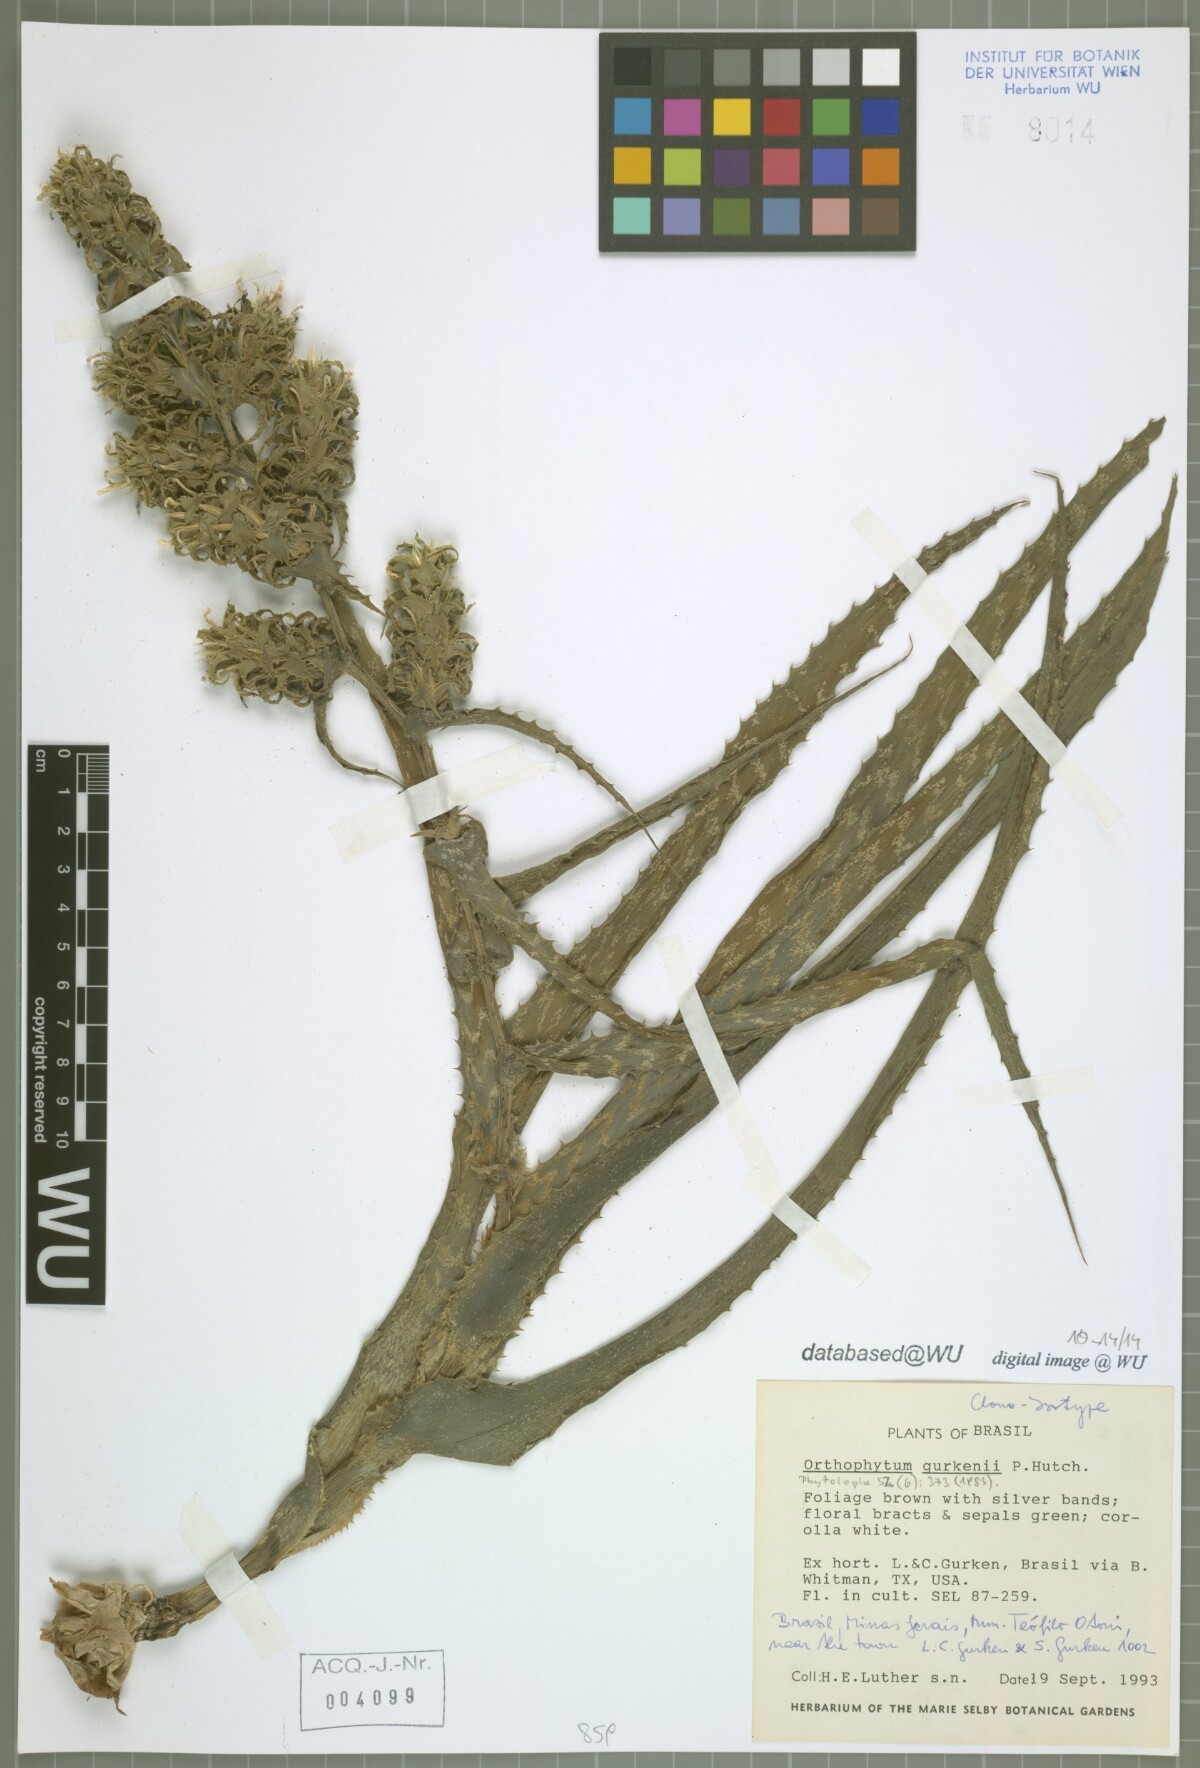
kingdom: Plantae
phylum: Tracheophyta
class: Liliopsida
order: Poales
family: Bromeliaceae
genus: Orthophytum
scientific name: Orthophytum gurkenii
